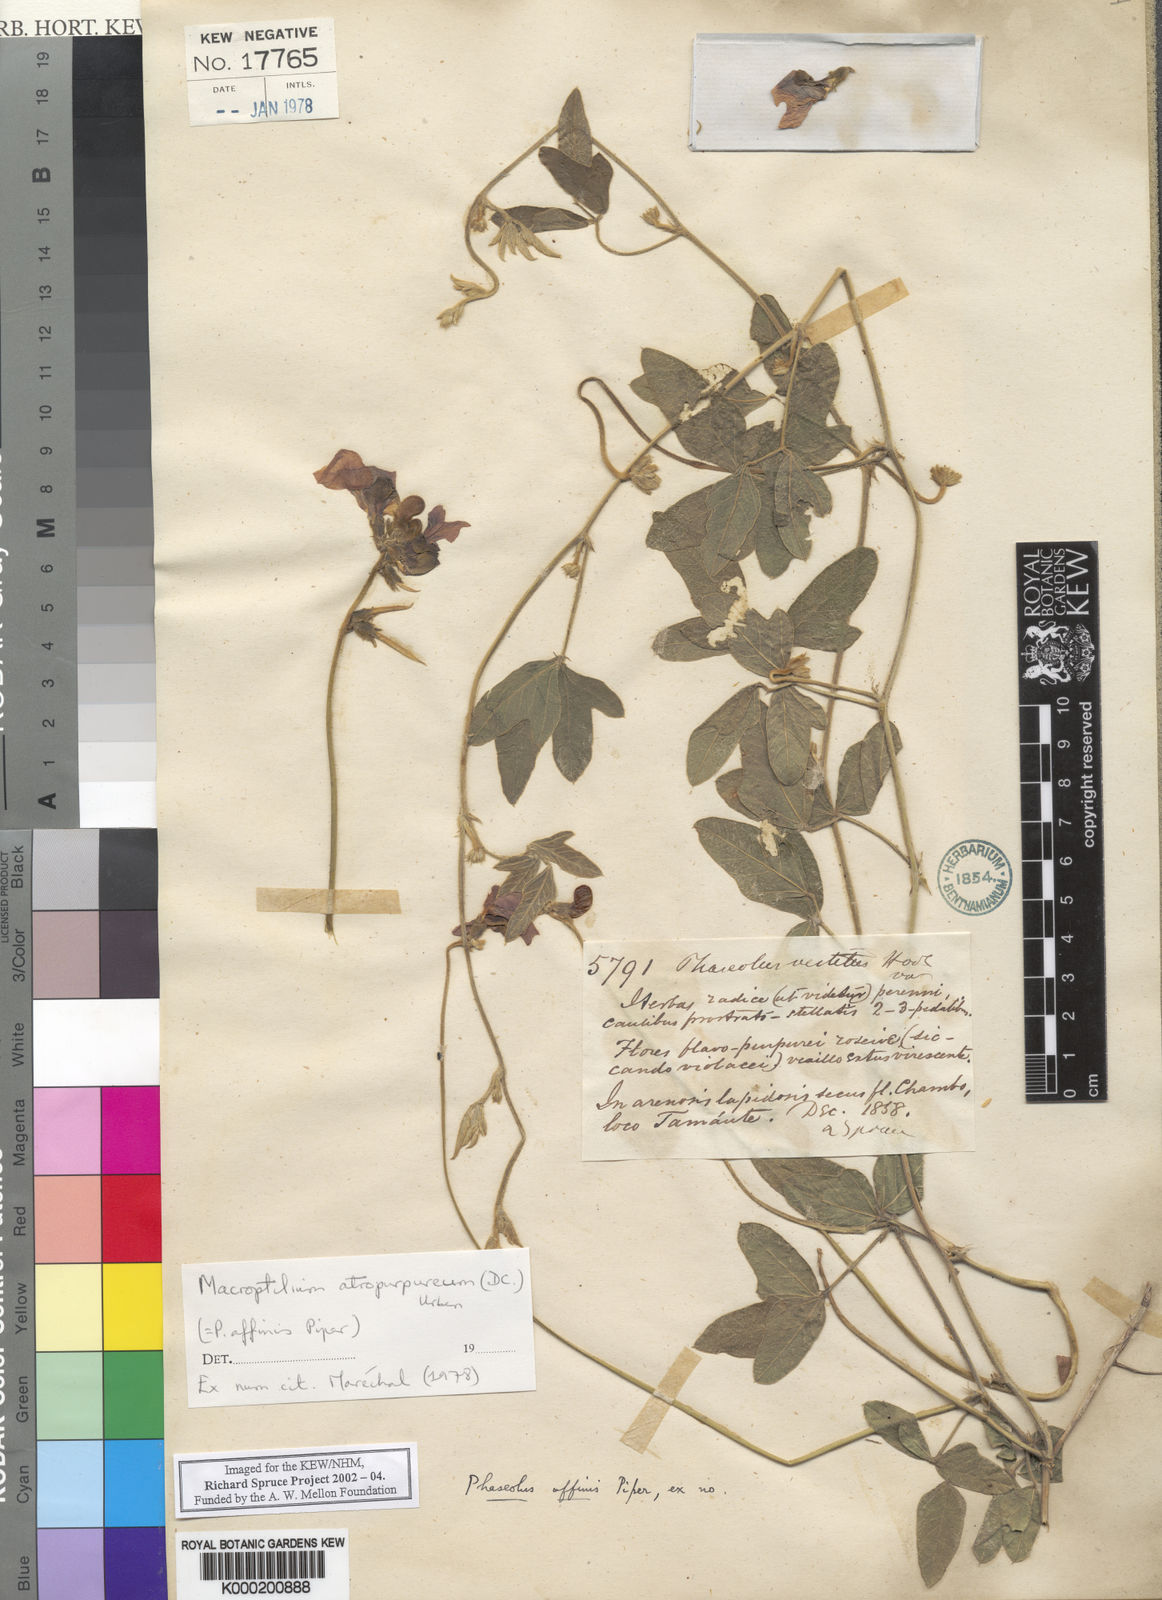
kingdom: Plantae
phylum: Tracheophyta
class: Magnoliopsida
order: Fabales
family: Fabaceae
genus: Macroptilium
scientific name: Macroptilium atropurpureum
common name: Purple bushbean
